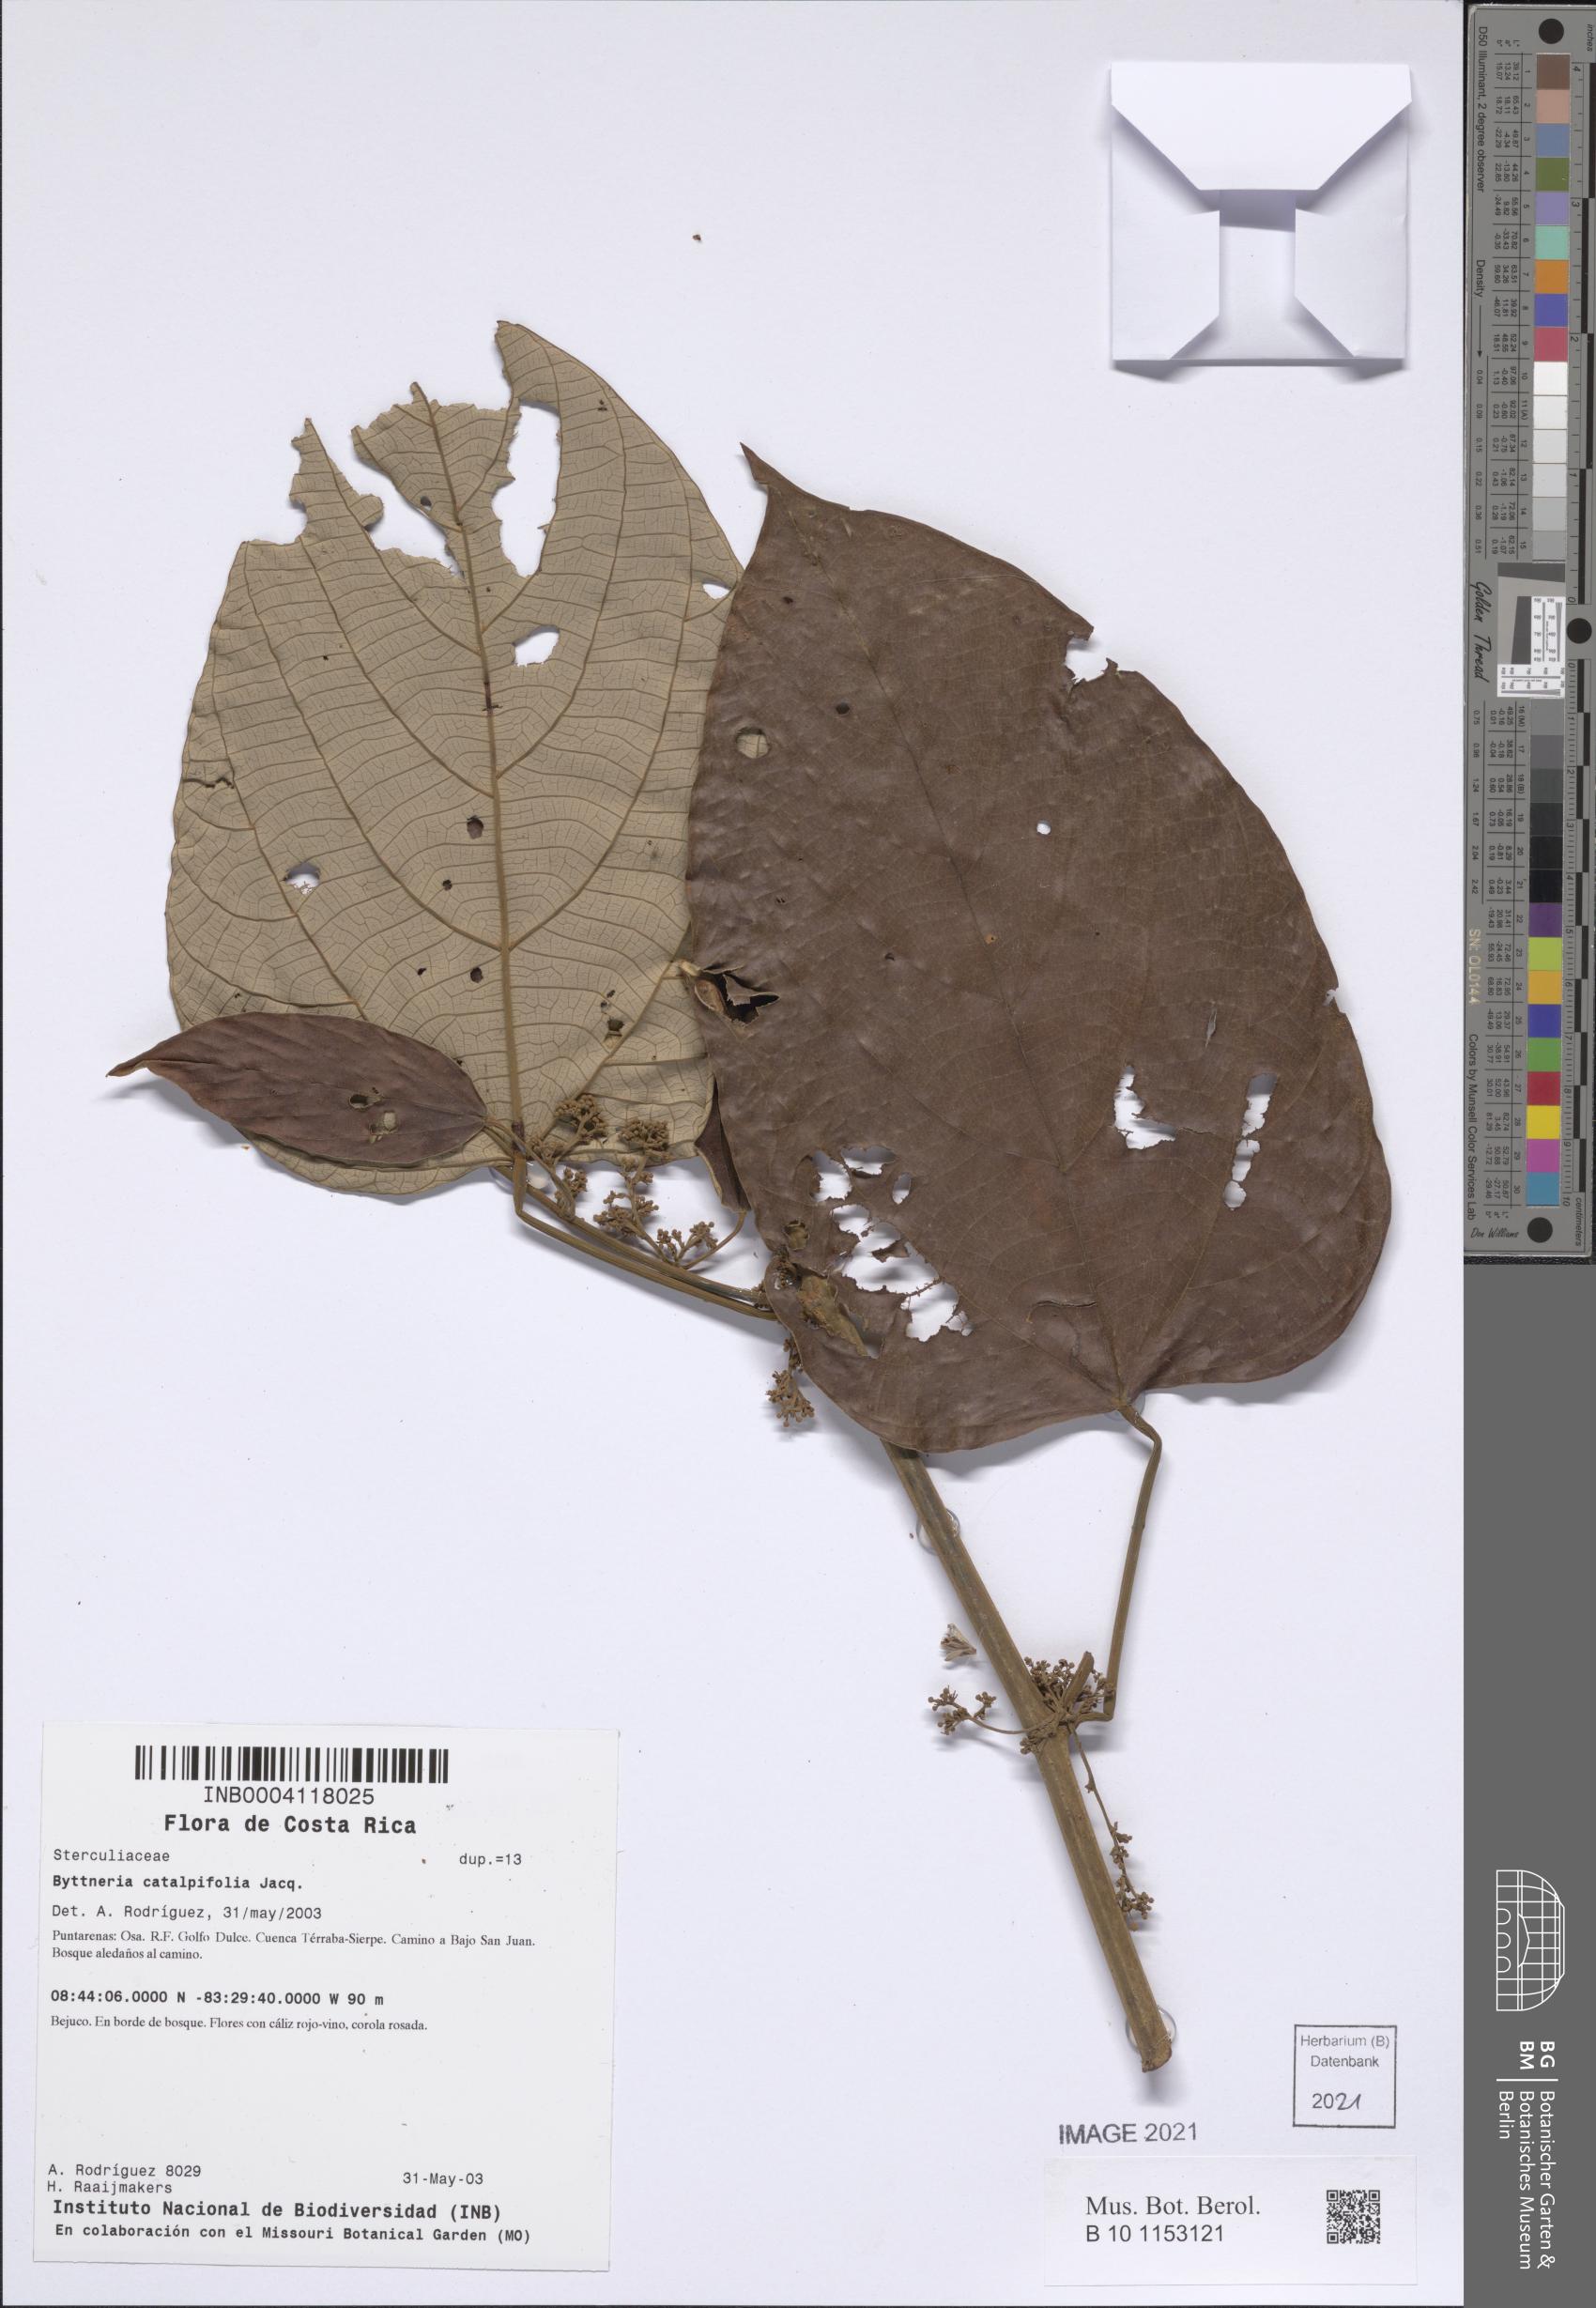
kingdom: Plantae
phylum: Tracheophyta
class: Magnoliopsida
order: Malvales
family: Malvaceae
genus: Byttneria
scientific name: Byttneria osaensis
